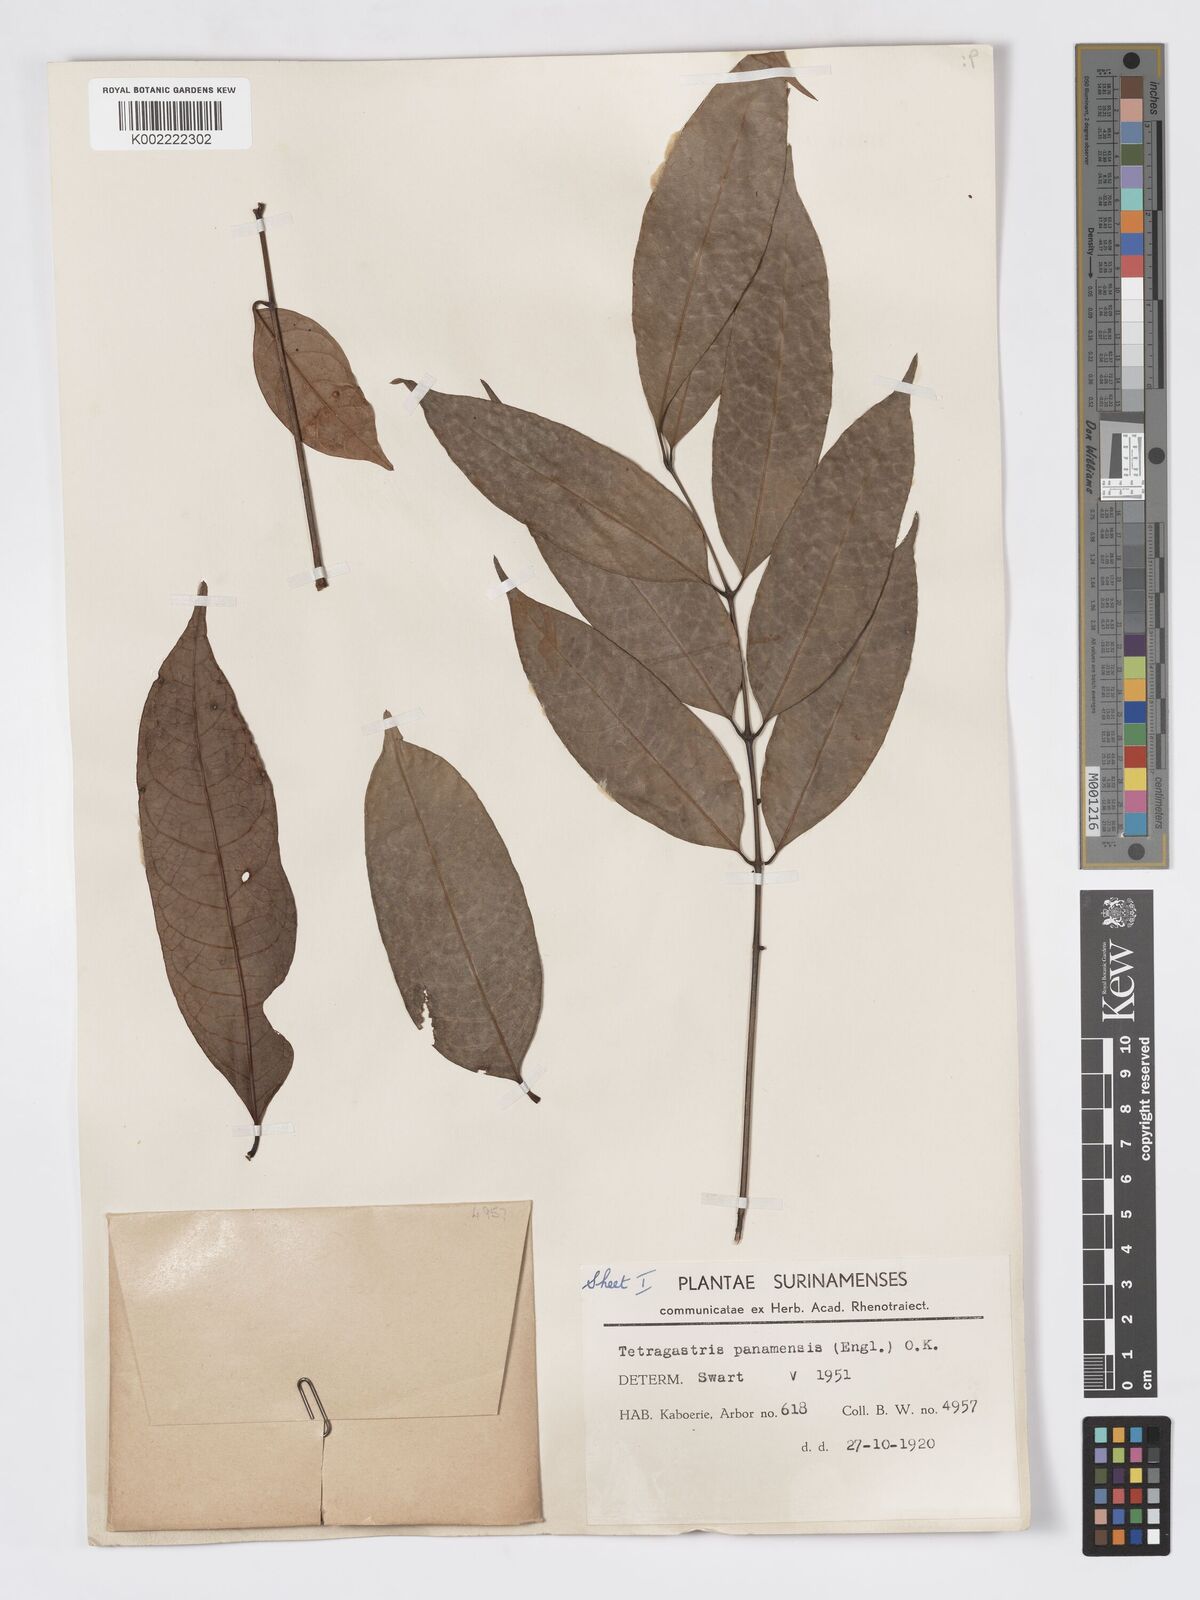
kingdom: Plantae
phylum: Tracheophyta
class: Magnoliopsida
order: Sapindales
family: Burseraceae
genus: Tetragastris
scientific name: Tetragastris panamensis
